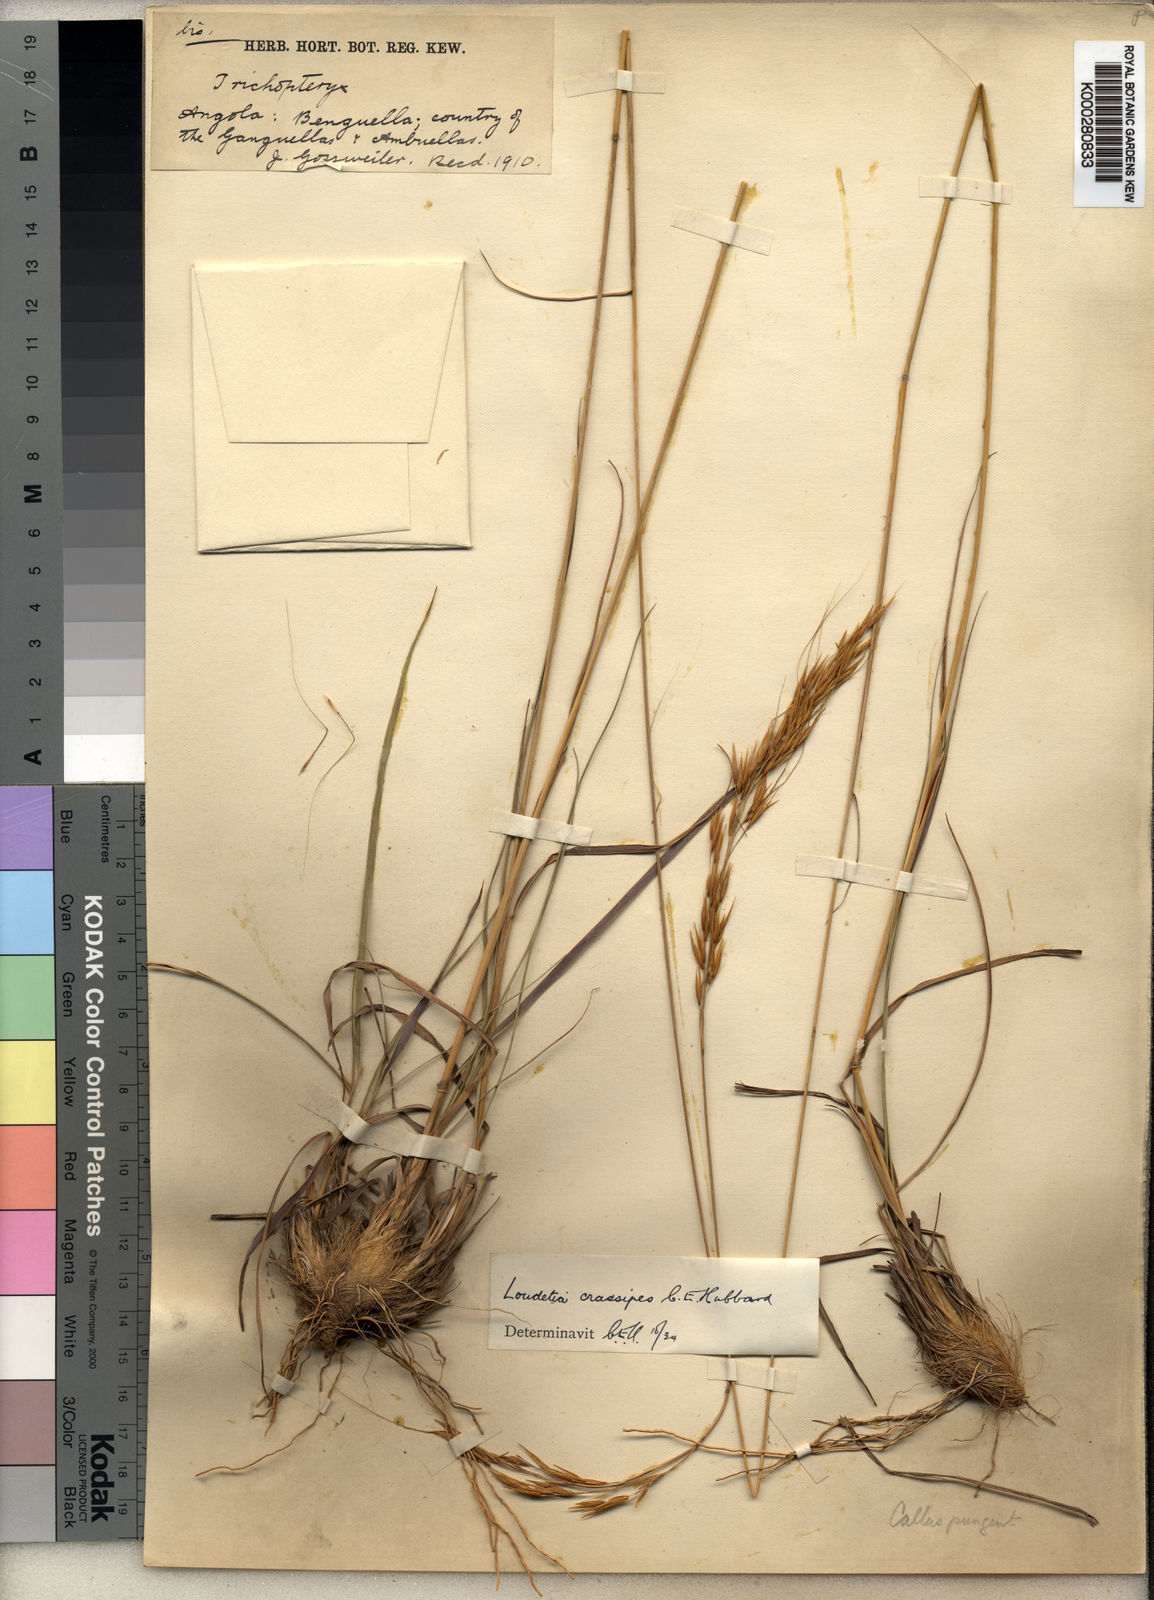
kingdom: Plantae
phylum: Tracheophyta
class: Liliopsida
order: Poales
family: Poaceae
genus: Loudetia
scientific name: Loudetia lanata
